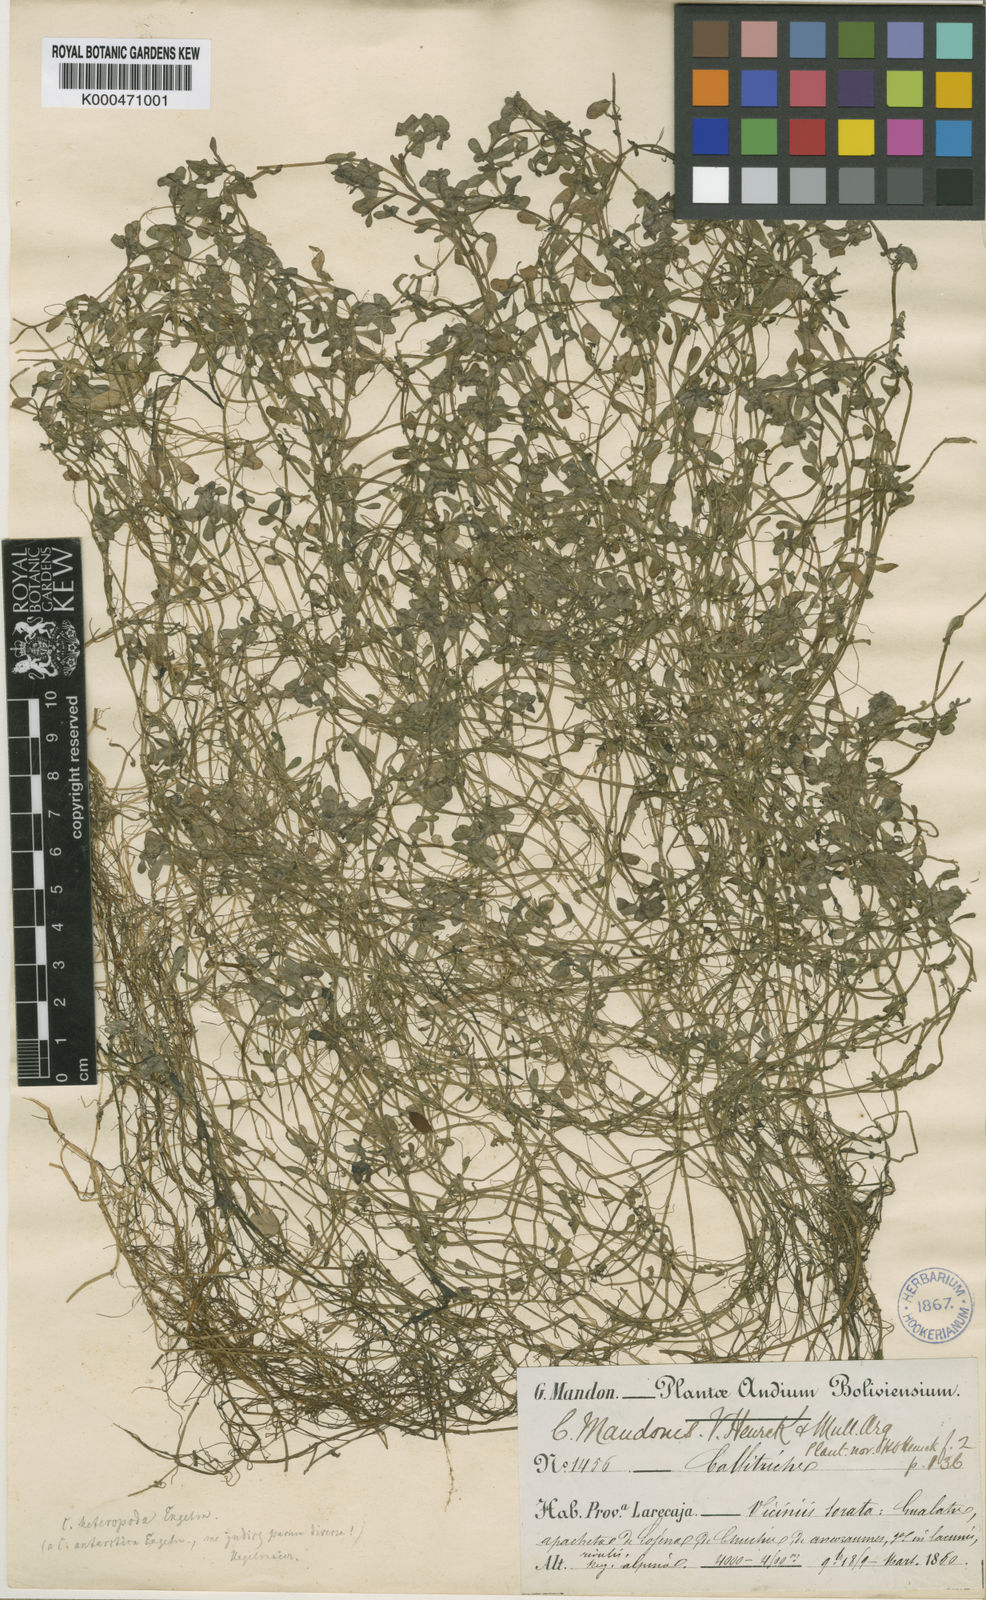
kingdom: Plantae
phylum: Tracheophyta
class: Magnoliopsida
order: Lamiales
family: Plantaginaceae
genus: Callitriche
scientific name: Callitriche
